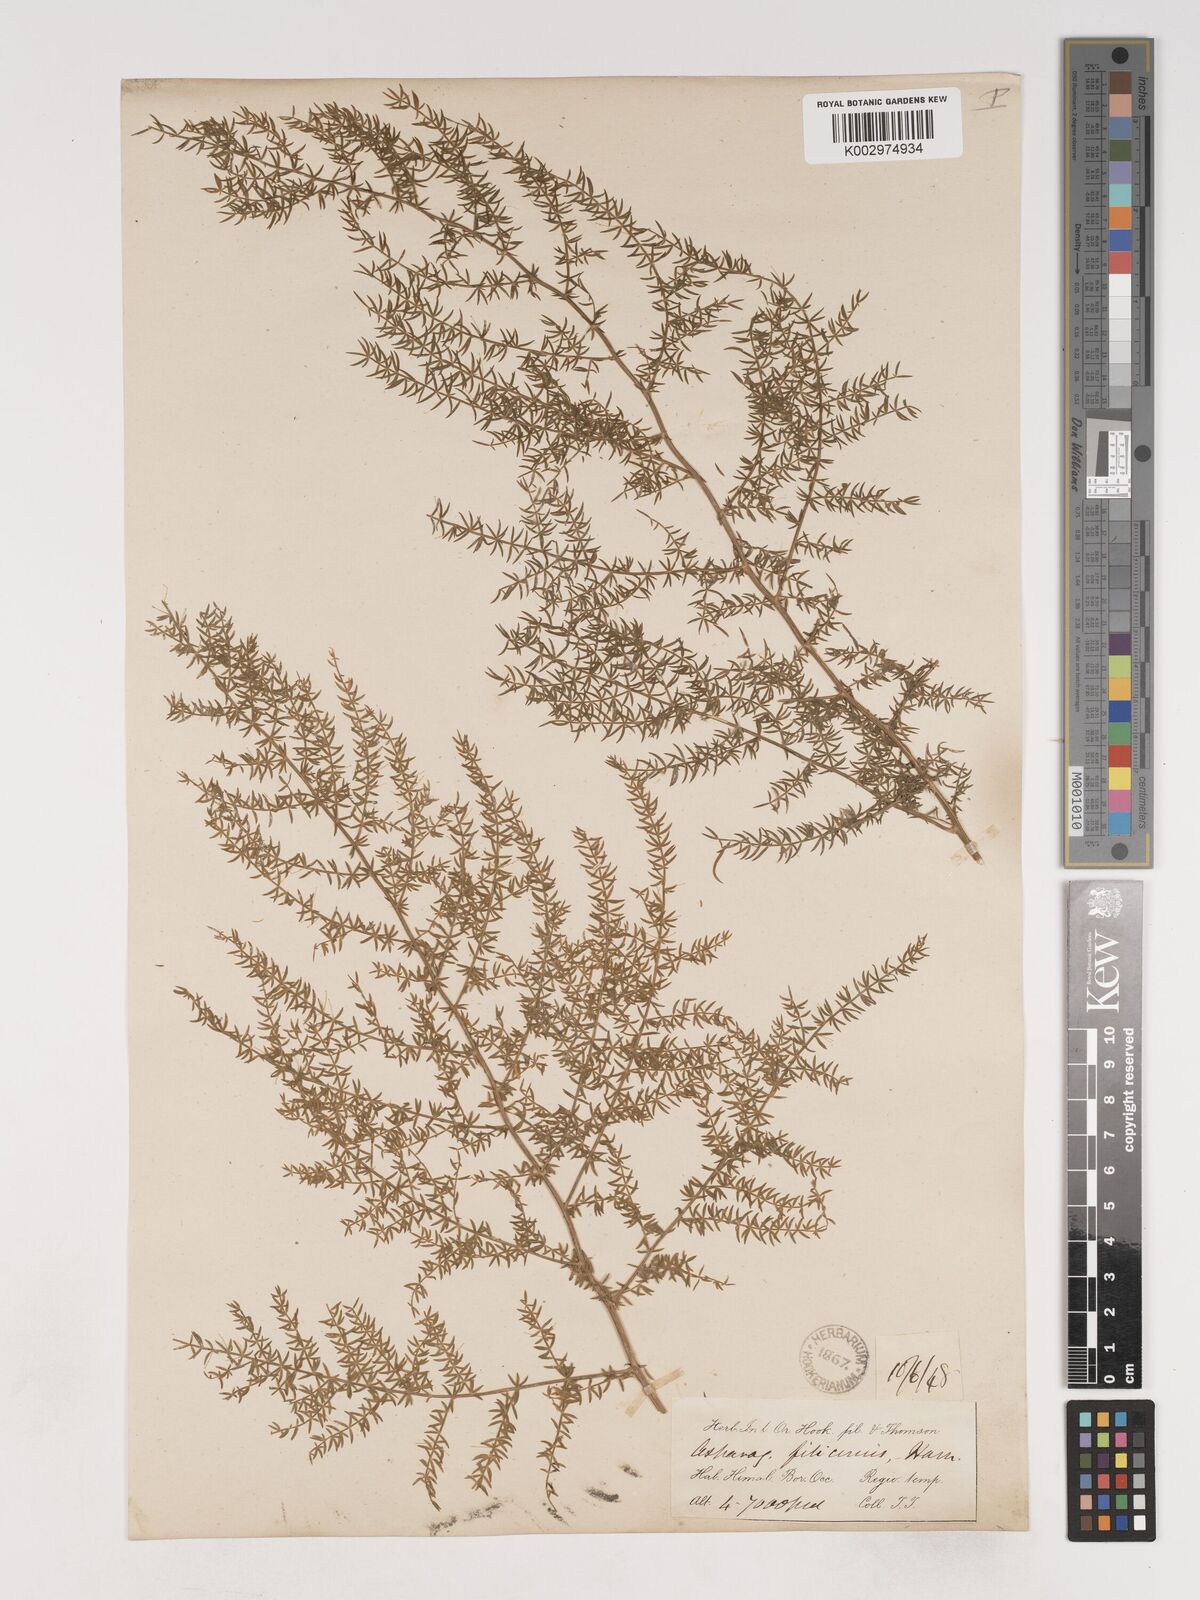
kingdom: Plantae
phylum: Tracheophyta
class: Liliopsida
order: Asparagales
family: Asparagaceae
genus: Asparagus
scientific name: Asparagus filicinus
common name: Fern asparagus
